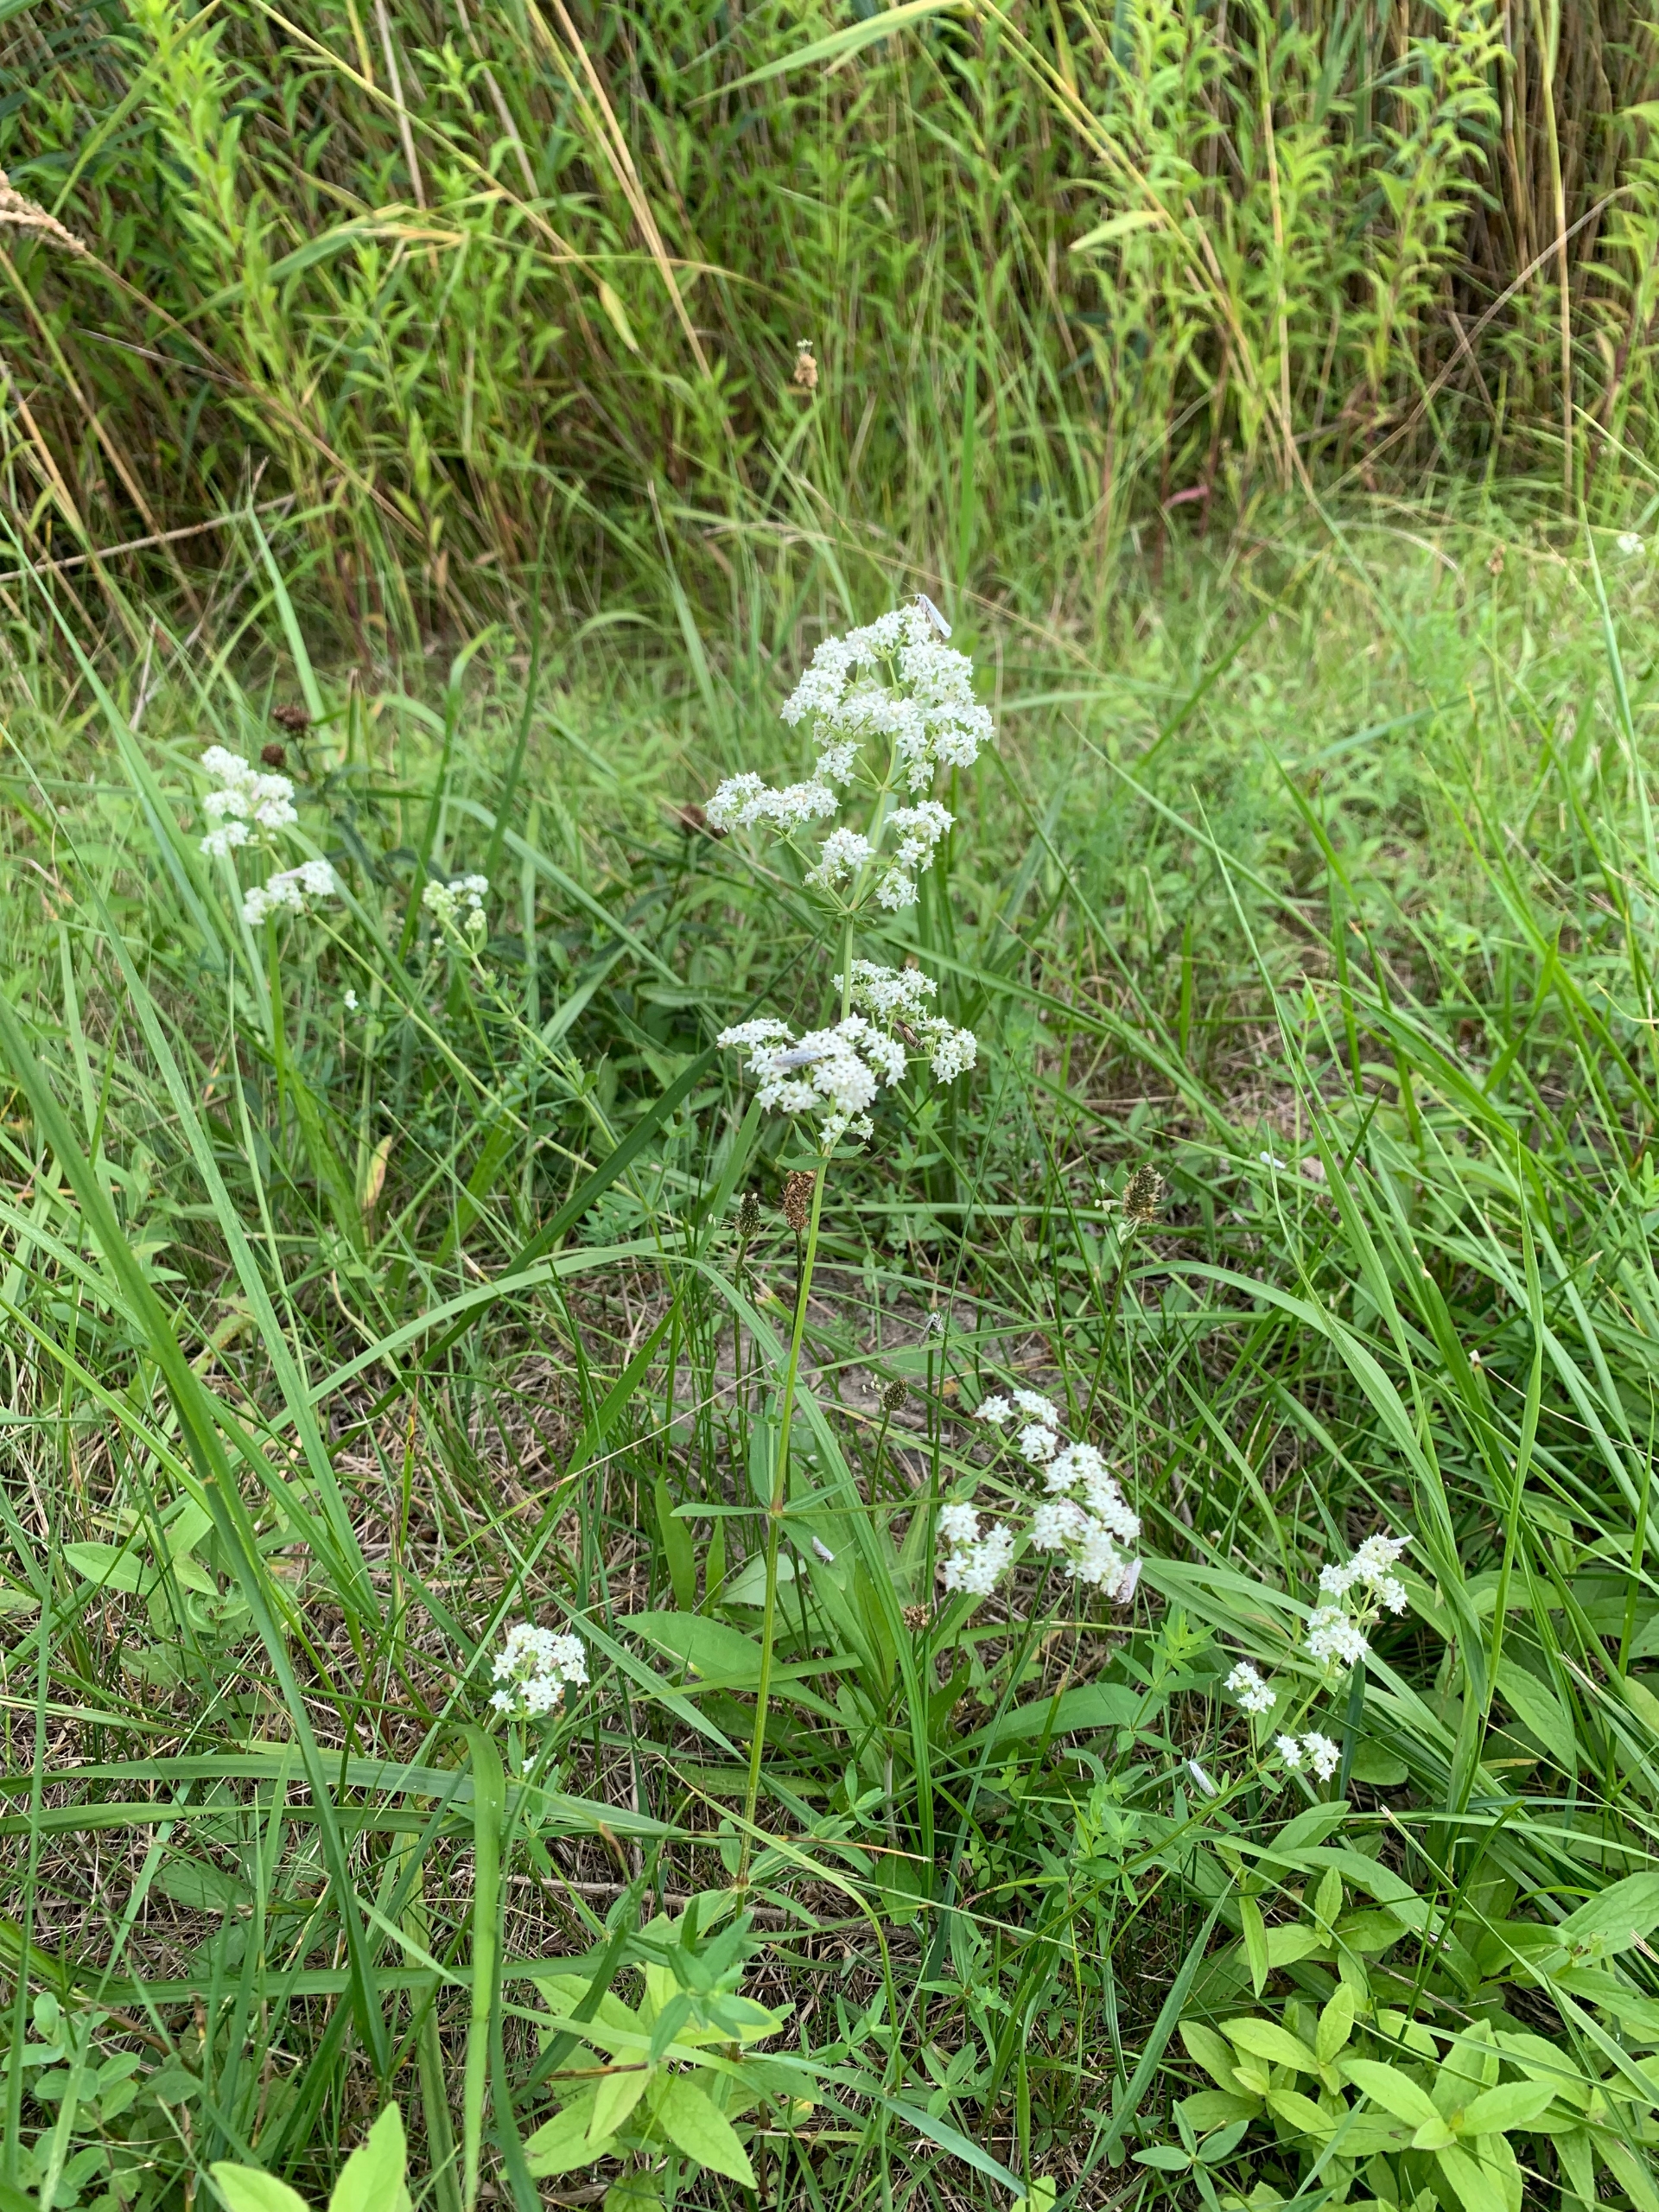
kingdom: Plantae
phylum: Tracheophyta
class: Magnoliopsida
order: Gentianales
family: Rubiaceae
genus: Galium
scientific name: Galium boreale
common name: Trenervet snerre
